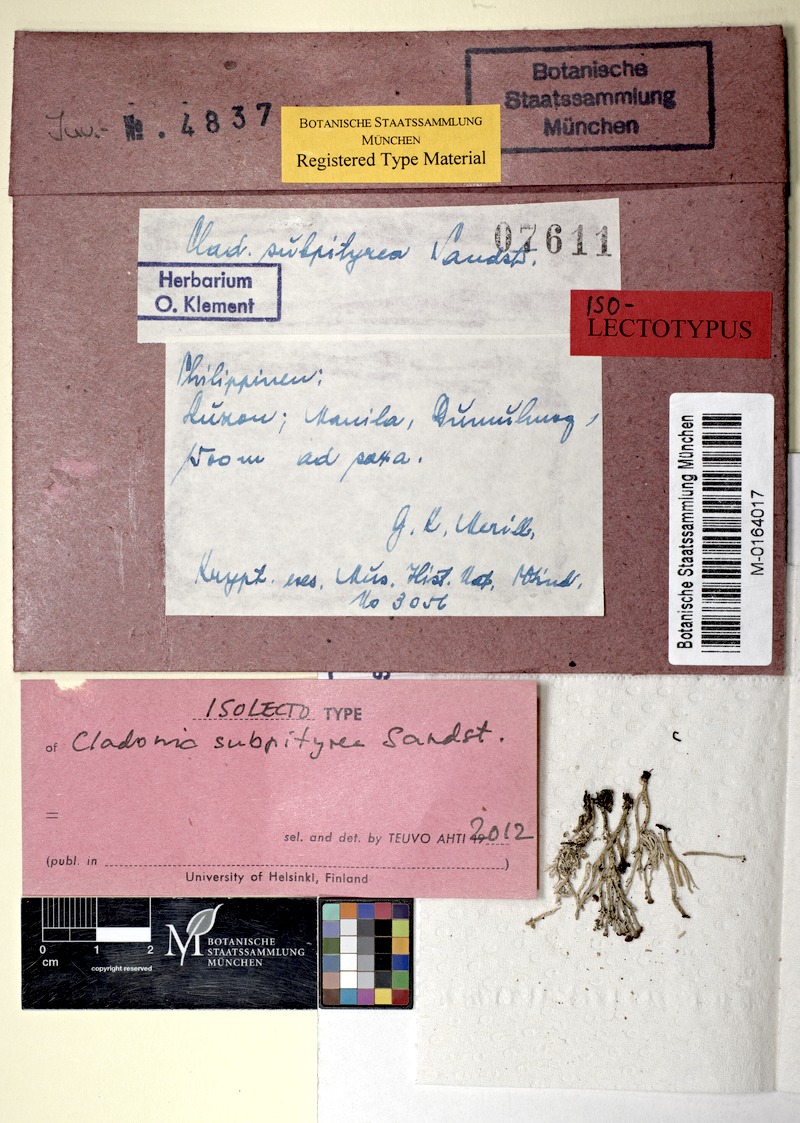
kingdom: Fungi
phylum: Ascomycota
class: Lecanoromycetes
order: Lecanorales
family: Cladoniaceae
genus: Cladonia
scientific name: Cladonia subpityrea
